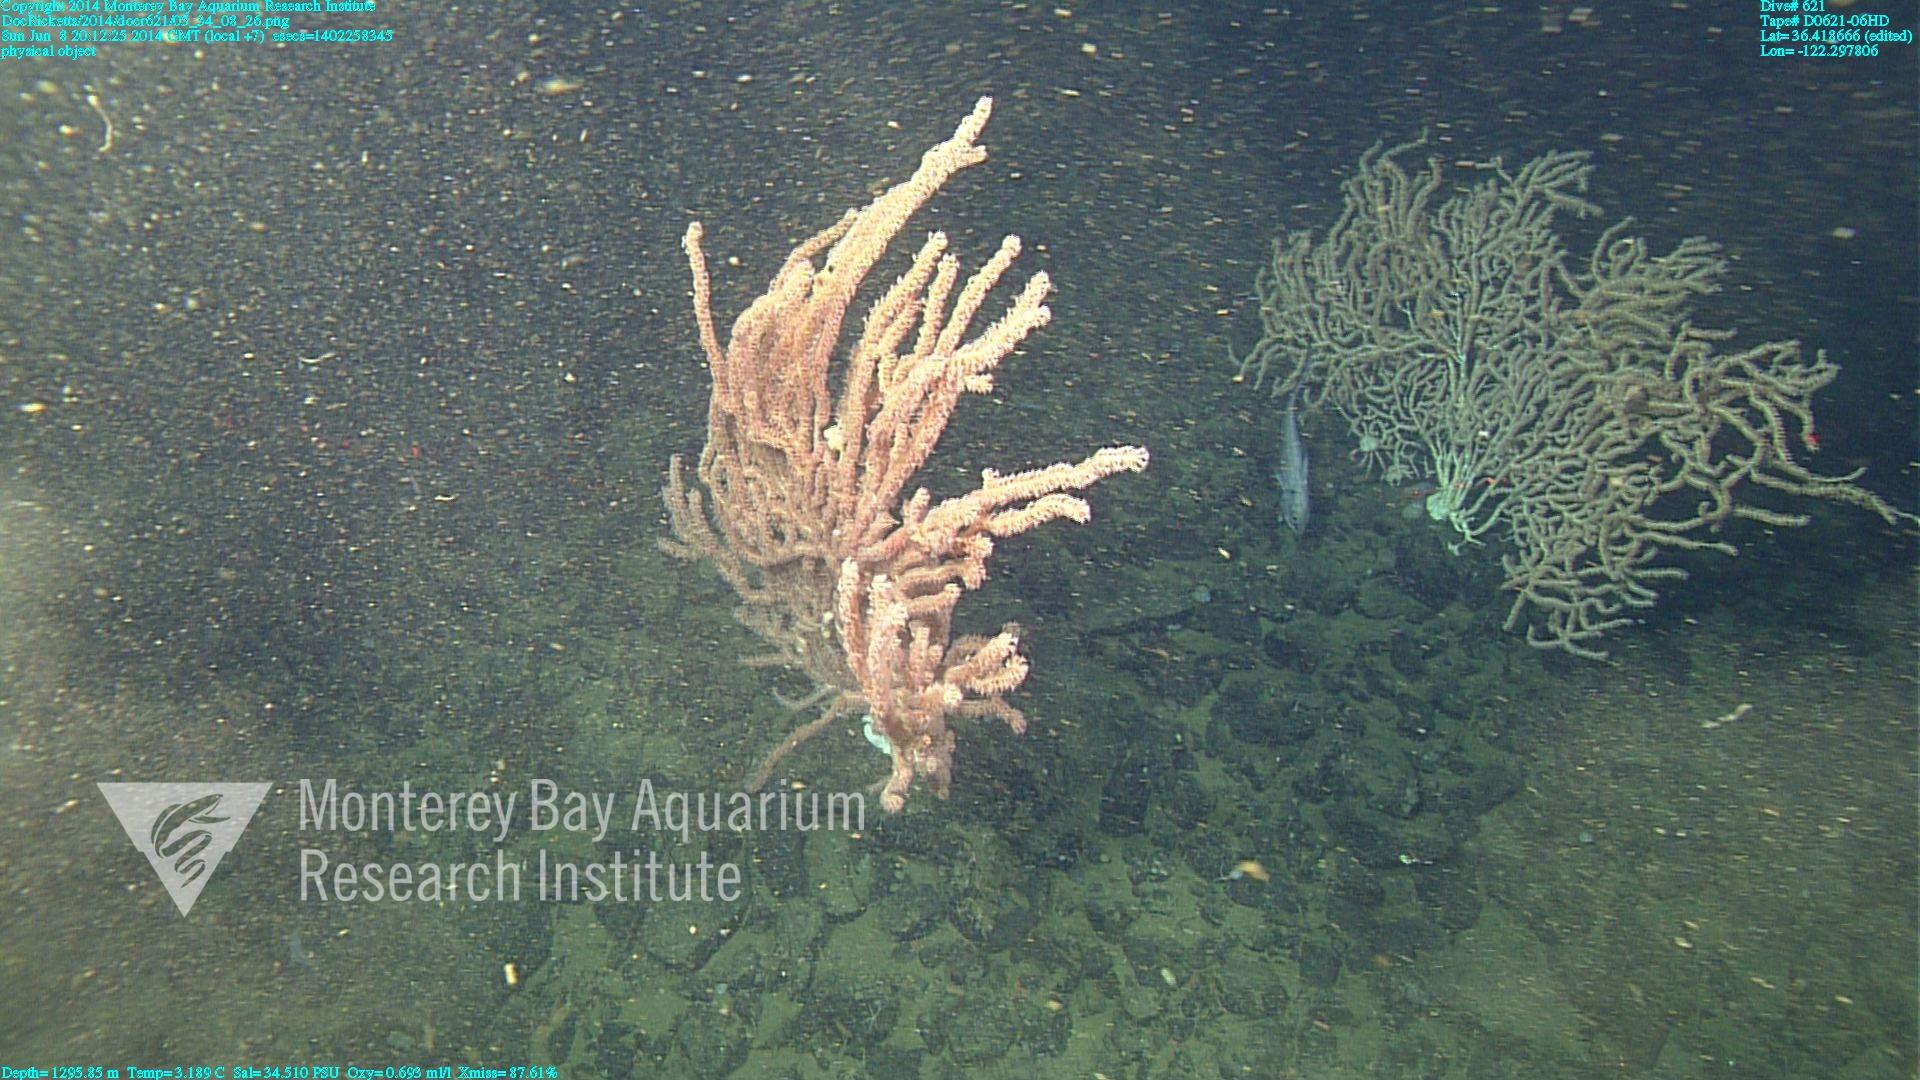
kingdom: Animalia
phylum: Cnidaria
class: Anthozoa
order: Scleralcyonacea
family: Keratoisididae
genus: Keratoisis
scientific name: Keratoisis
